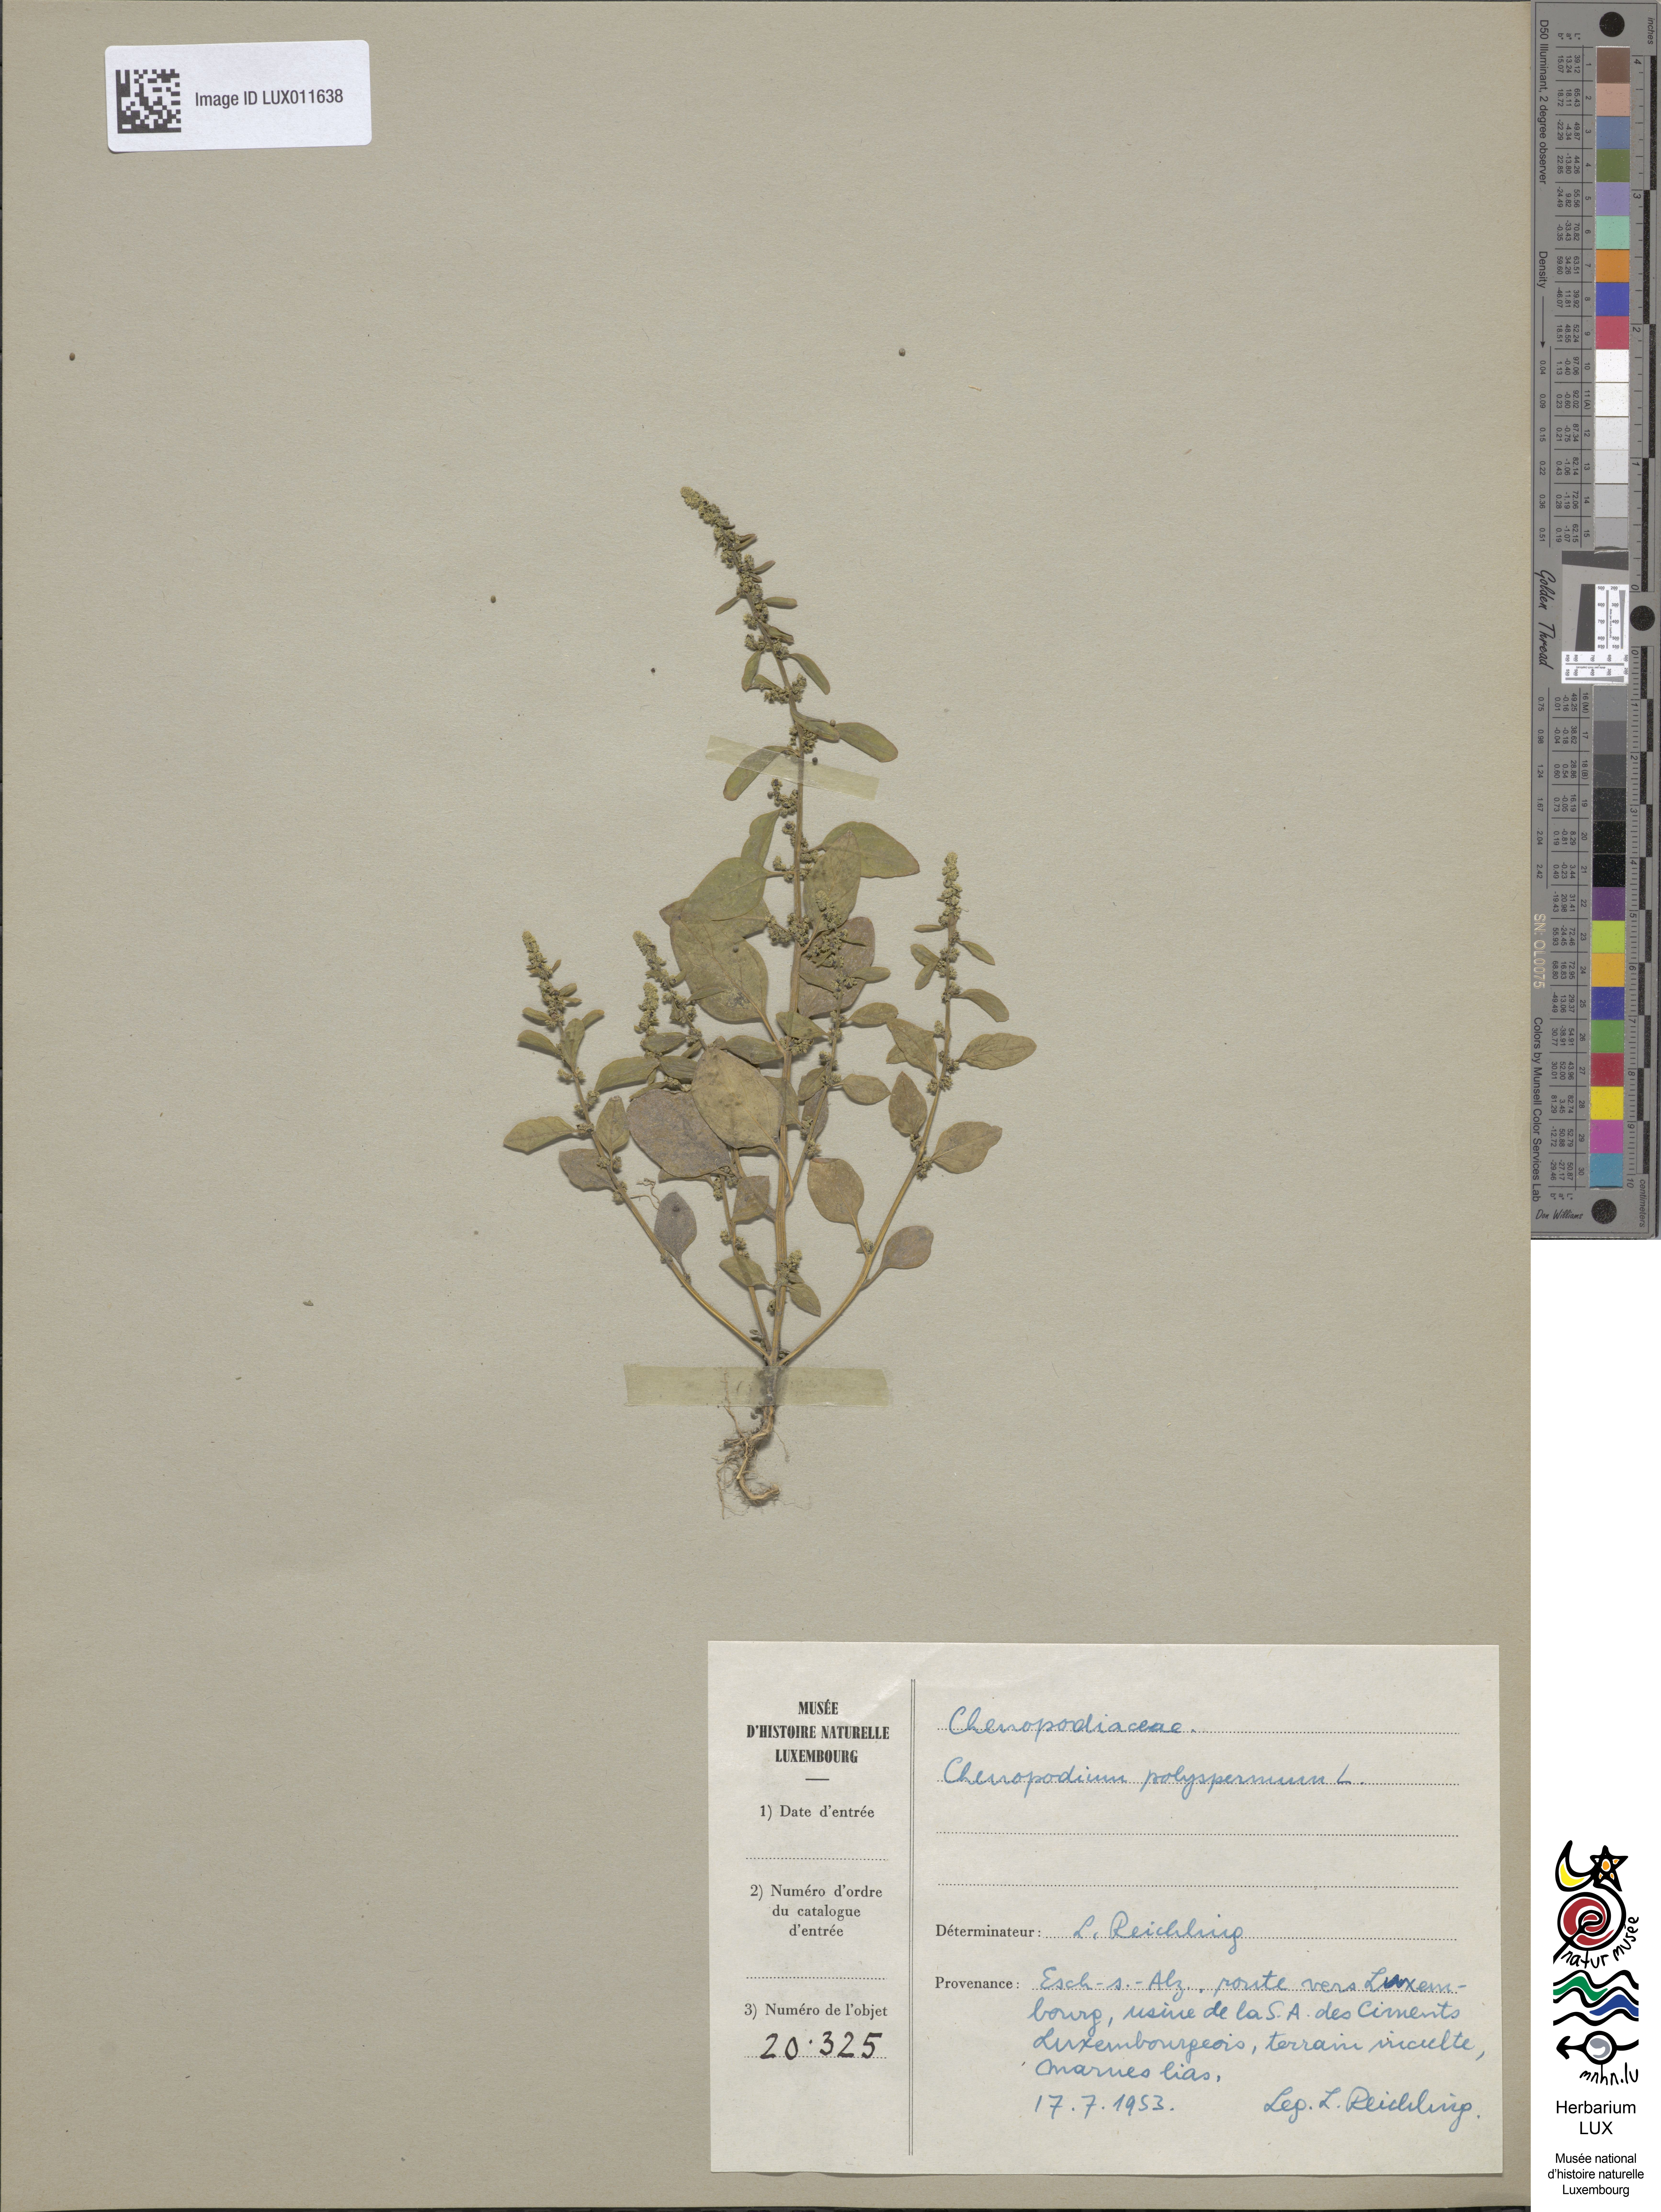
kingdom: Plantae
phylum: Tracheophyta
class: Magnoliopsida
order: Caryophyllales
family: Amaranthaceae
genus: Lipandra
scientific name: Lipandra polysperma
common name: Many-seed goosefoot
